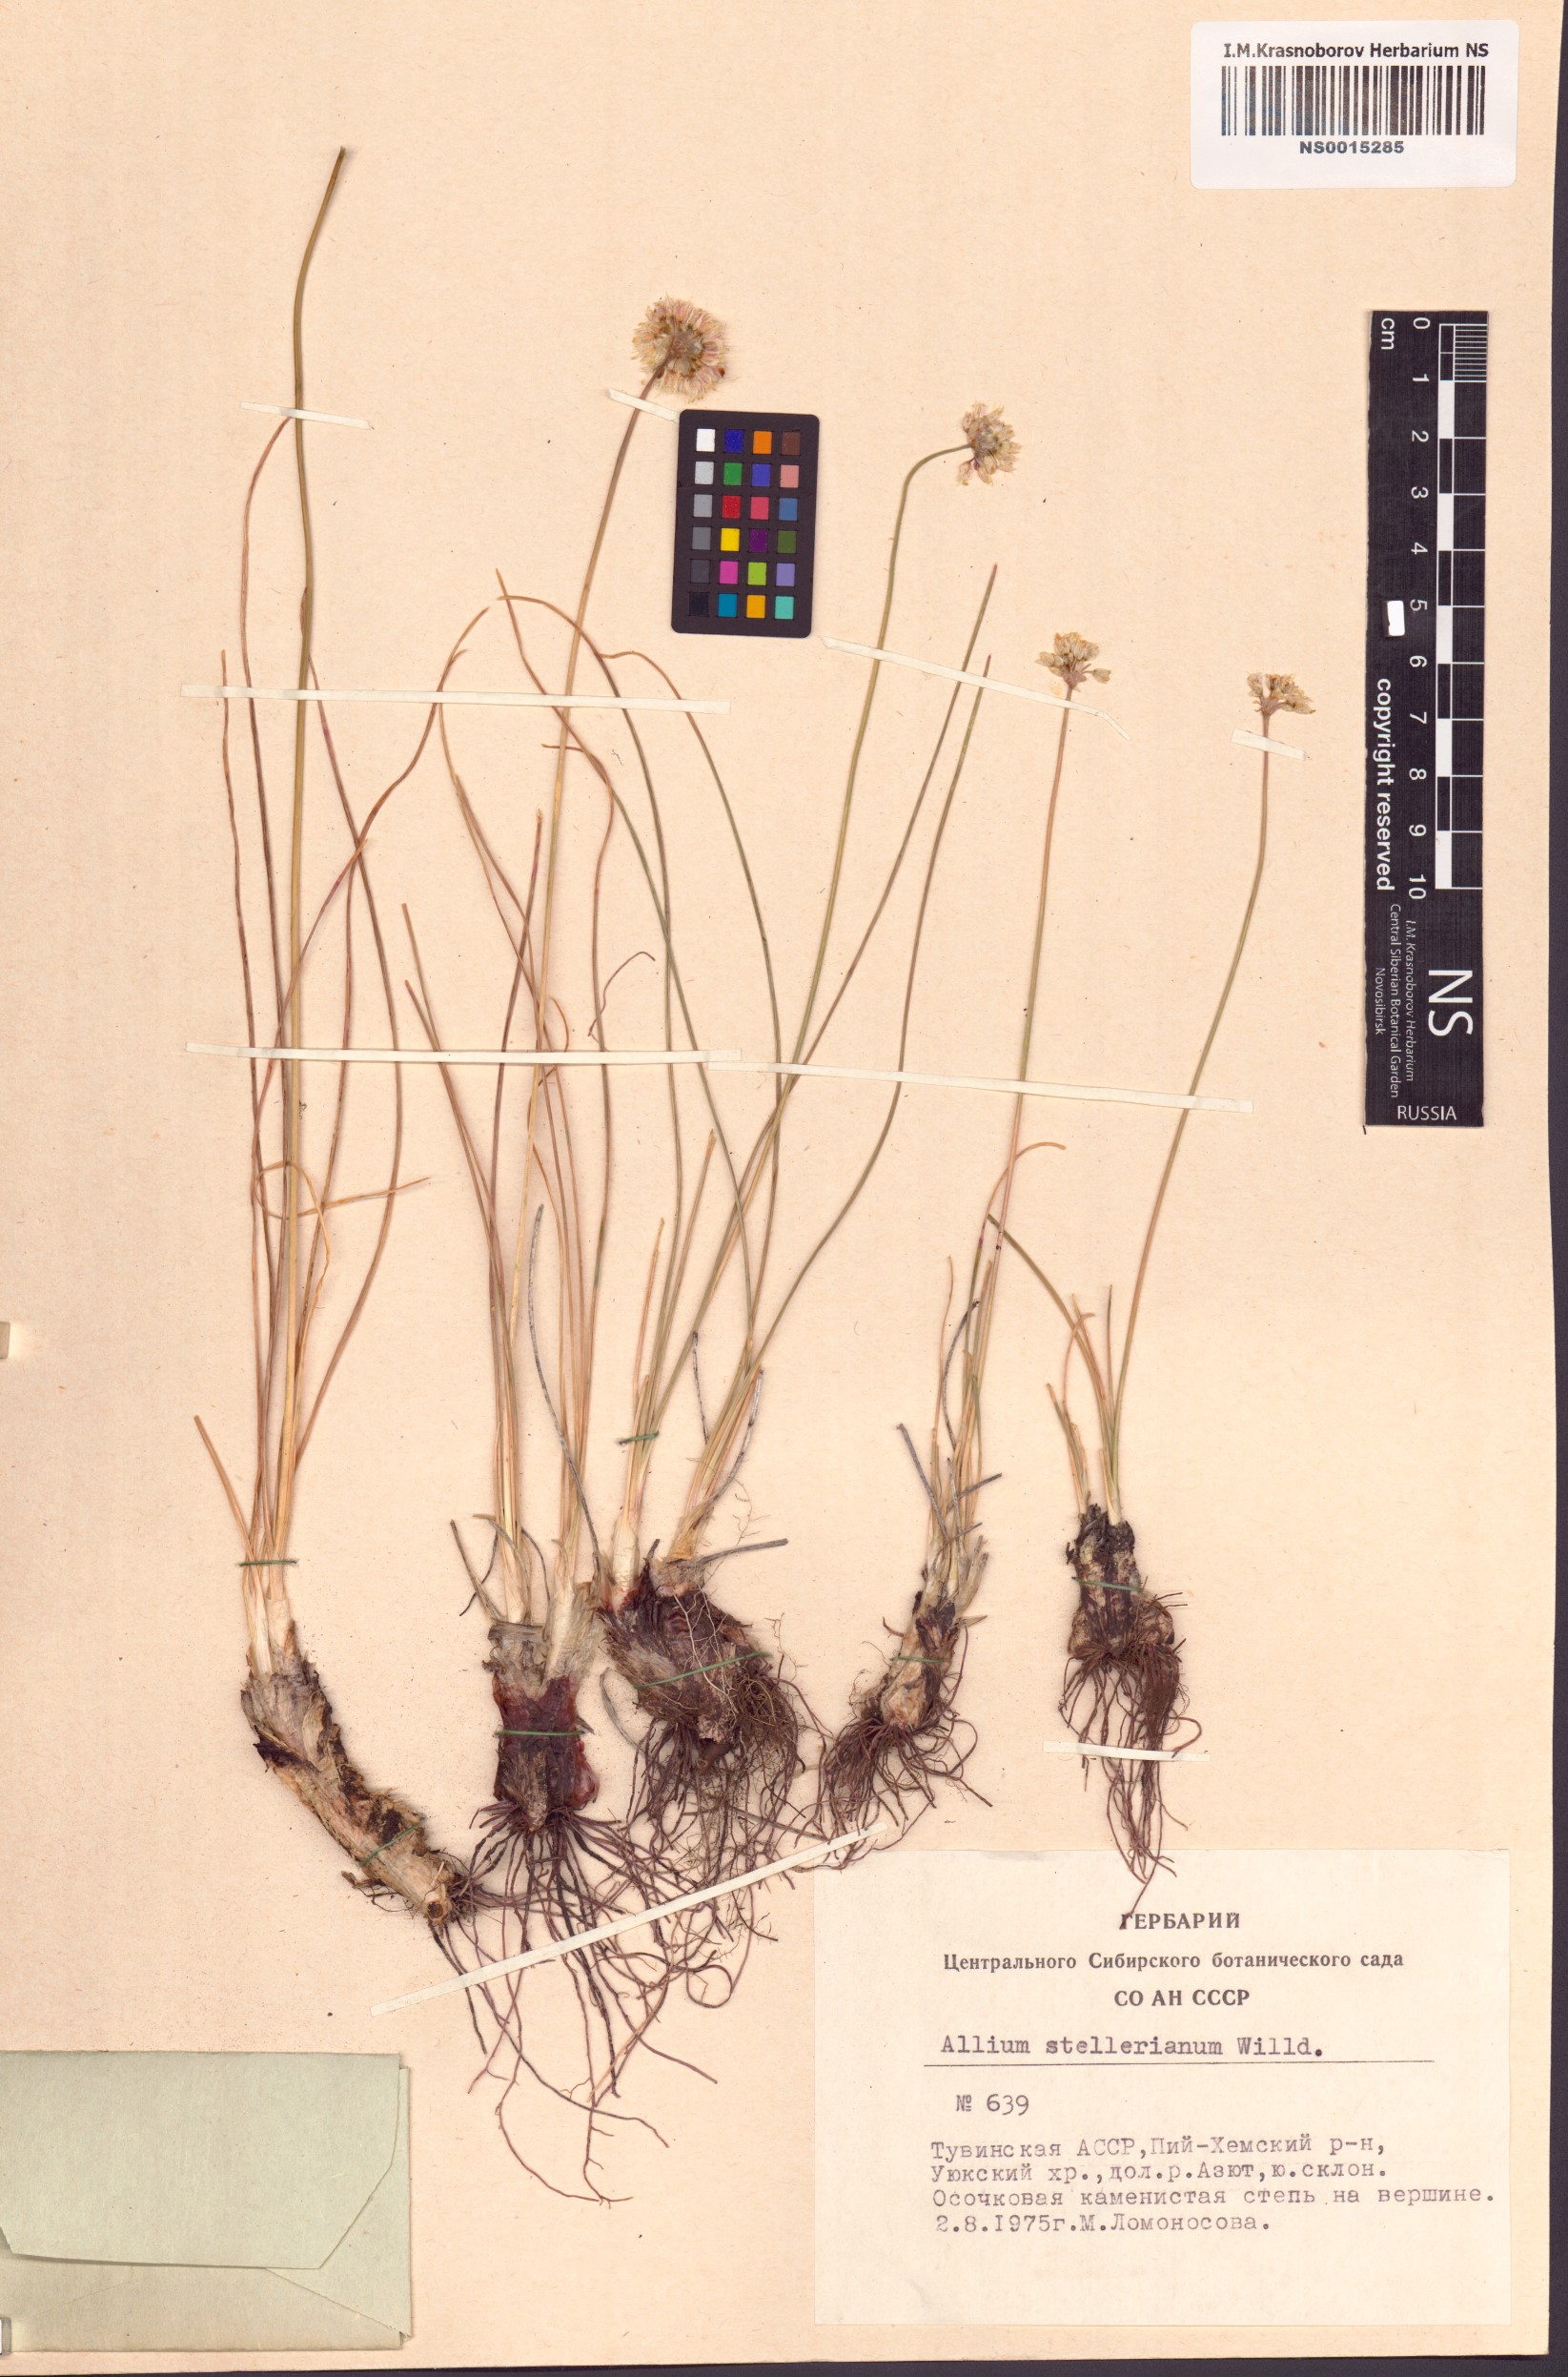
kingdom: Plantae
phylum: Tracheophyta
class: Liliopsida
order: Asparagales
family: Amaryllidaceae
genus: Allium
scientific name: Allium stellerianum
